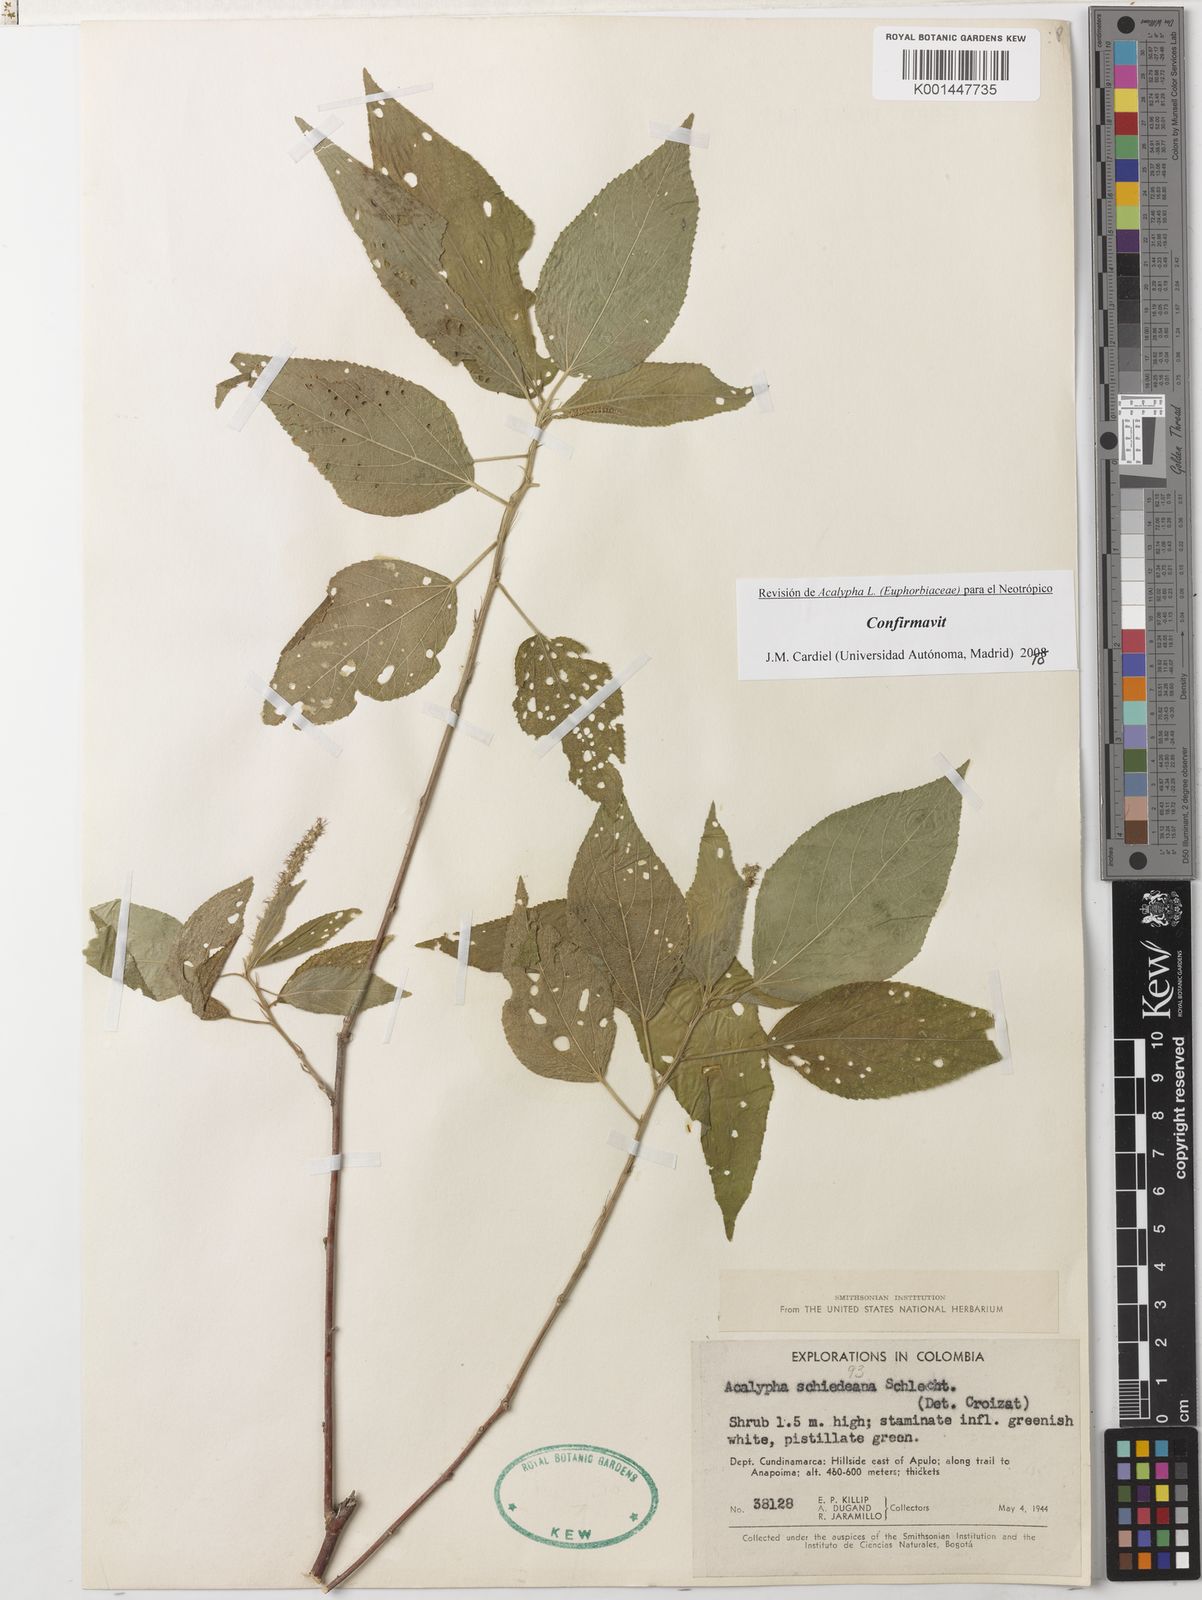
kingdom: Plantae
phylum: Tracheophyta
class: Magnoliopsida
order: Malpighiales
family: Euphorbiaceae
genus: Acalypha
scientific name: Acalypha schiedeana
